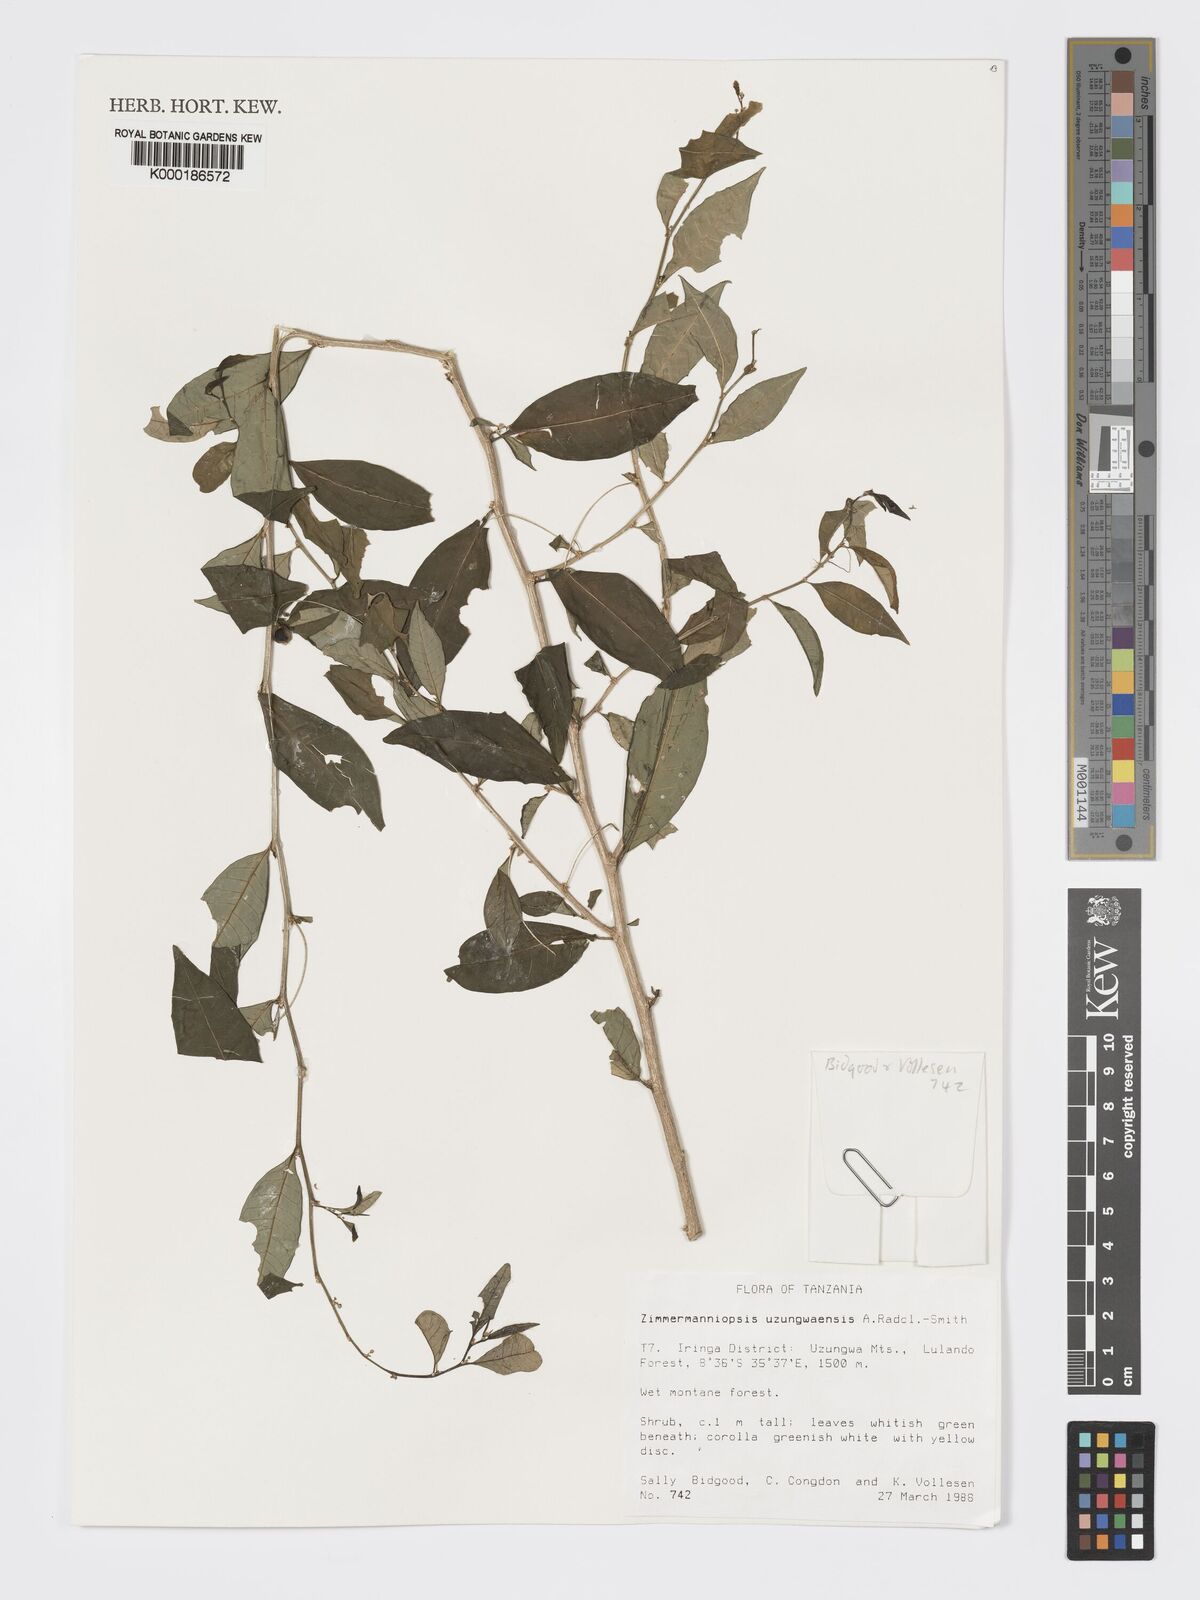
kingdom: Plantae
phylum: Tracheophyta
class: Magnoliopsida
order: Malpighiales
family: Phyllanthaceae
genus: Meineckia
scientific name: Meineckia uzungwaensis
